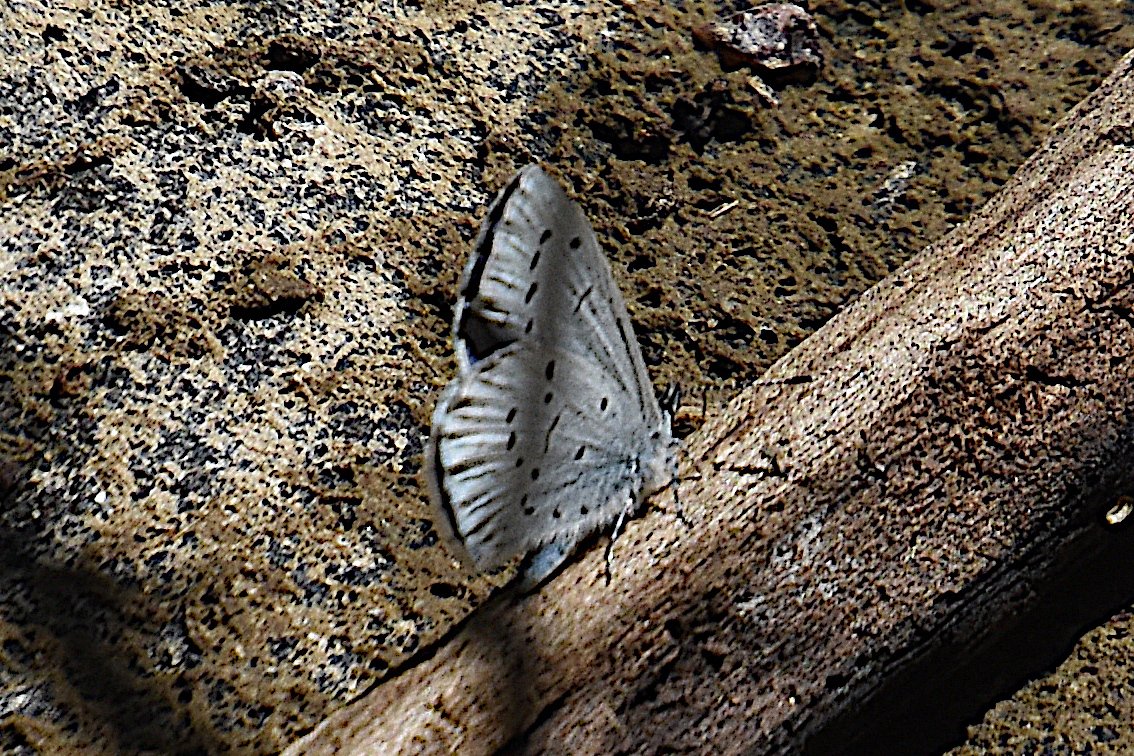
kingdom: Animalia
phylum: Arthropoda
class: Insecta
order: Lepidoptera
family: Lycaenidae
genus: Celastrina
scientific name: Celastrina ladon
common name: Echo Azure
